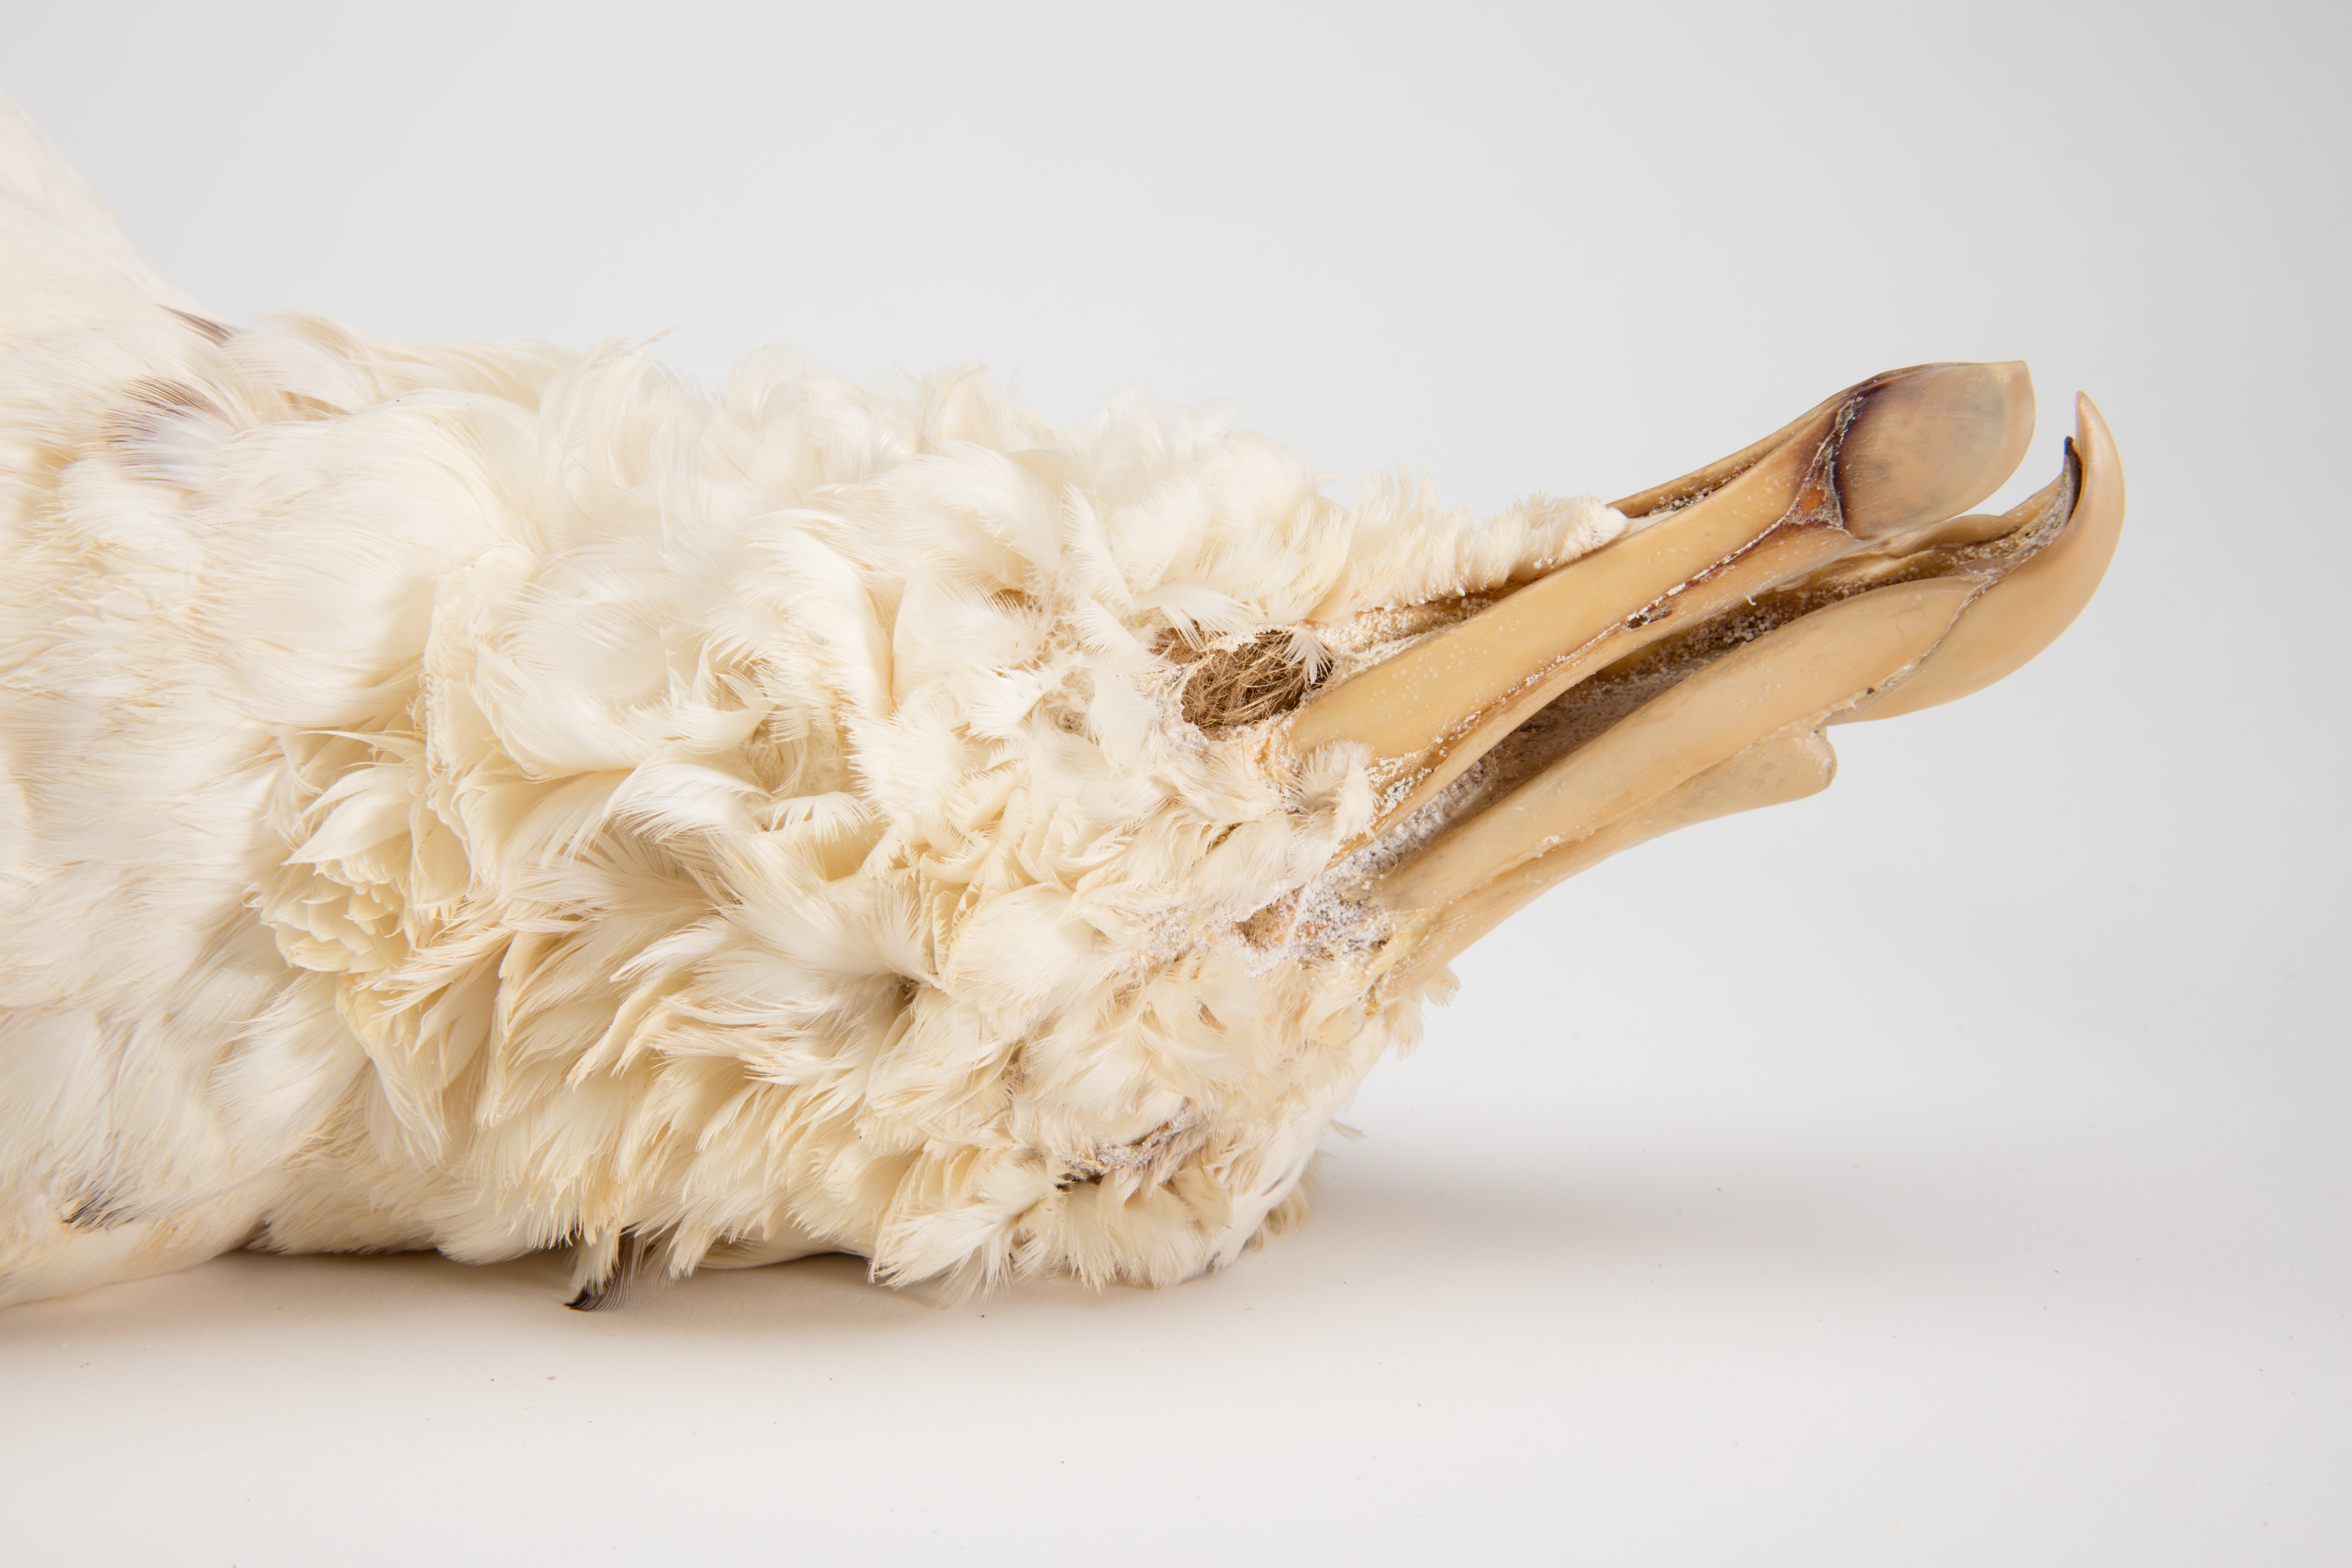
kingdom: Animalia
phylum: Chordata
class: Aves
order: Procellariiformes
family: Procellariidae
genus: Macronectes
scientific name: Macronectes giganteus
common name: Southern giant petrel
